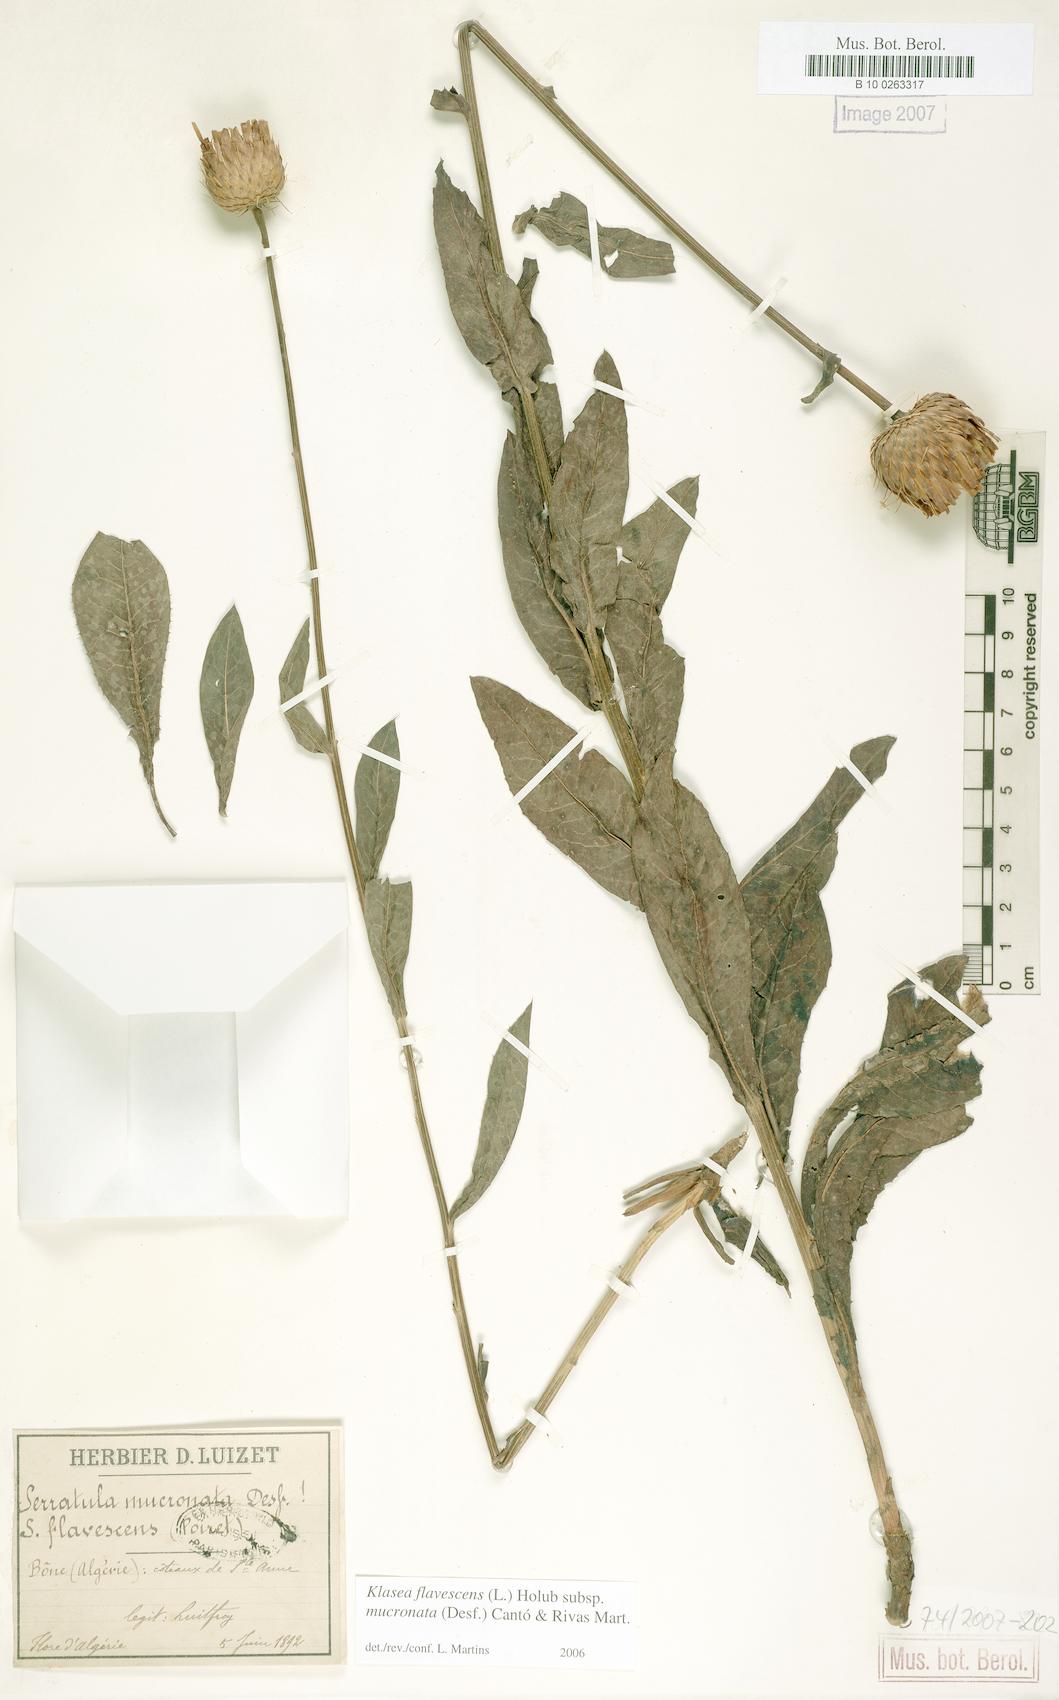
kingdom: Plantae
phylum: Tracheophyta
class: Magnoliopsida
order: Asterales
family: Asteraceae
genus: Klasea
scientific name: Klasea flavescens
